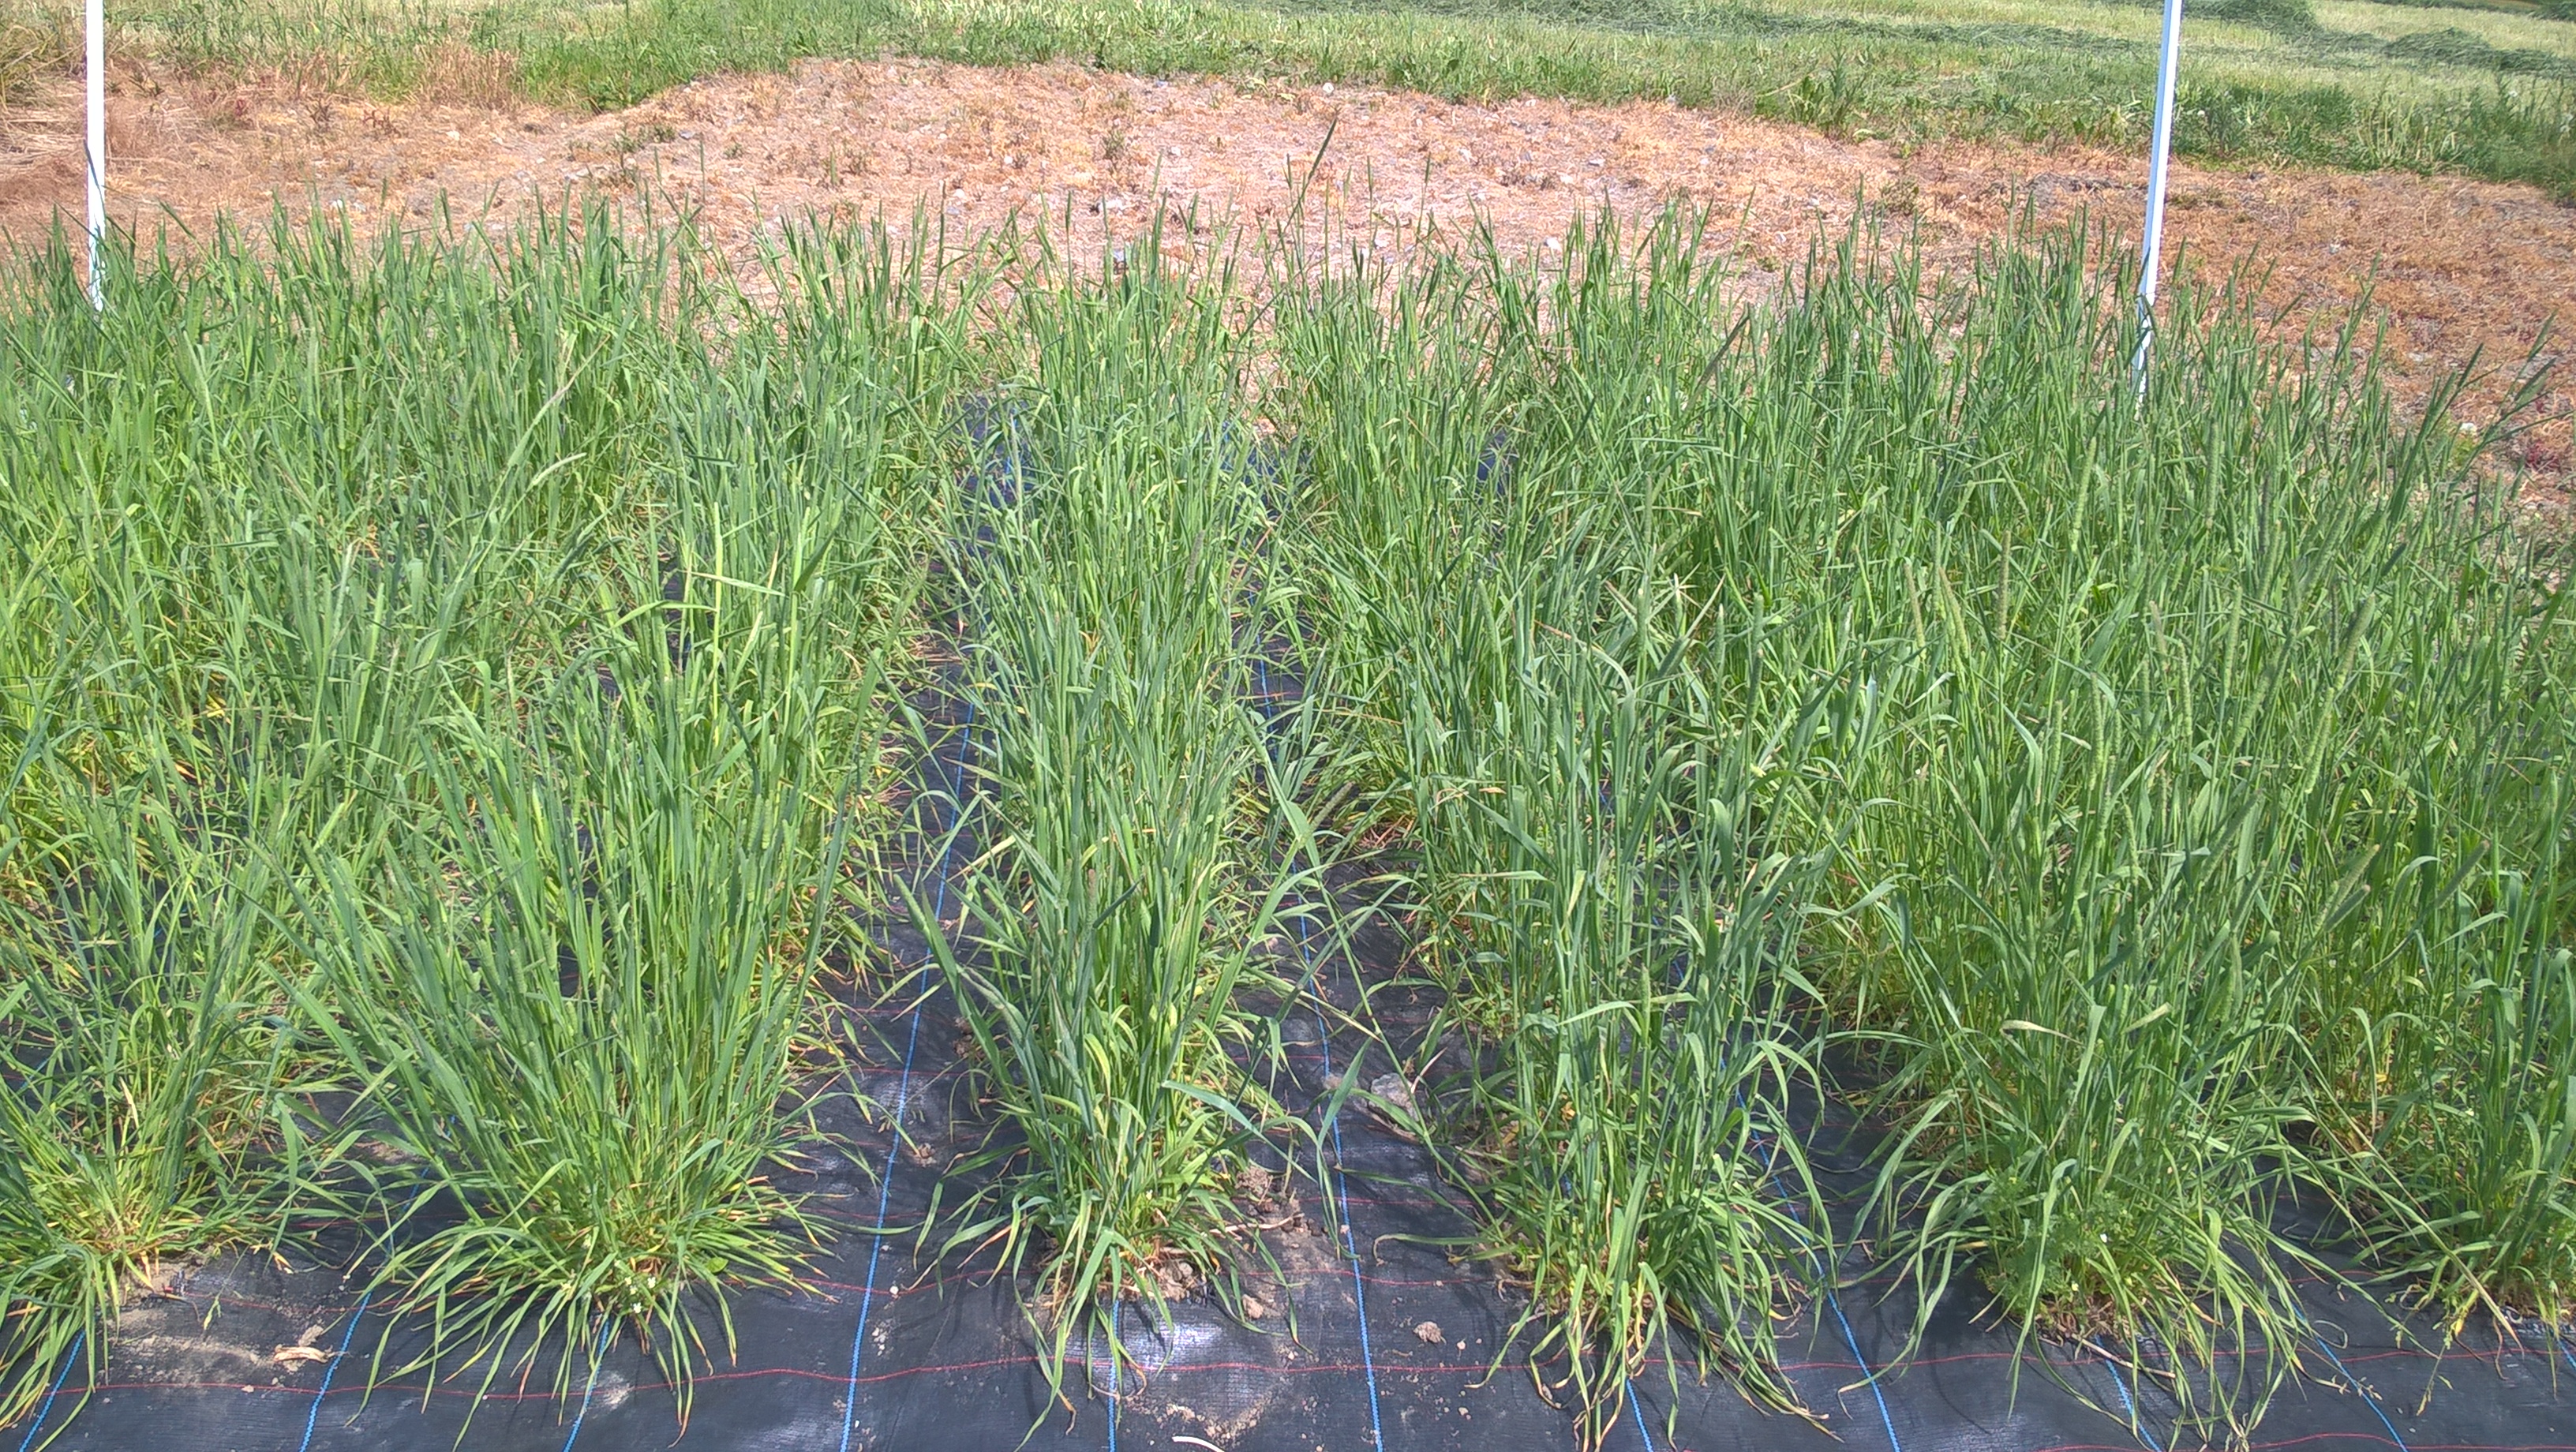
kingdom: Plantae
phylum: Tracheophyta
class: Liliopsida
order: Poales
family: Poaceae
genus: Phleum
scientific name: Phleum pratense
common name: Timothy grass
